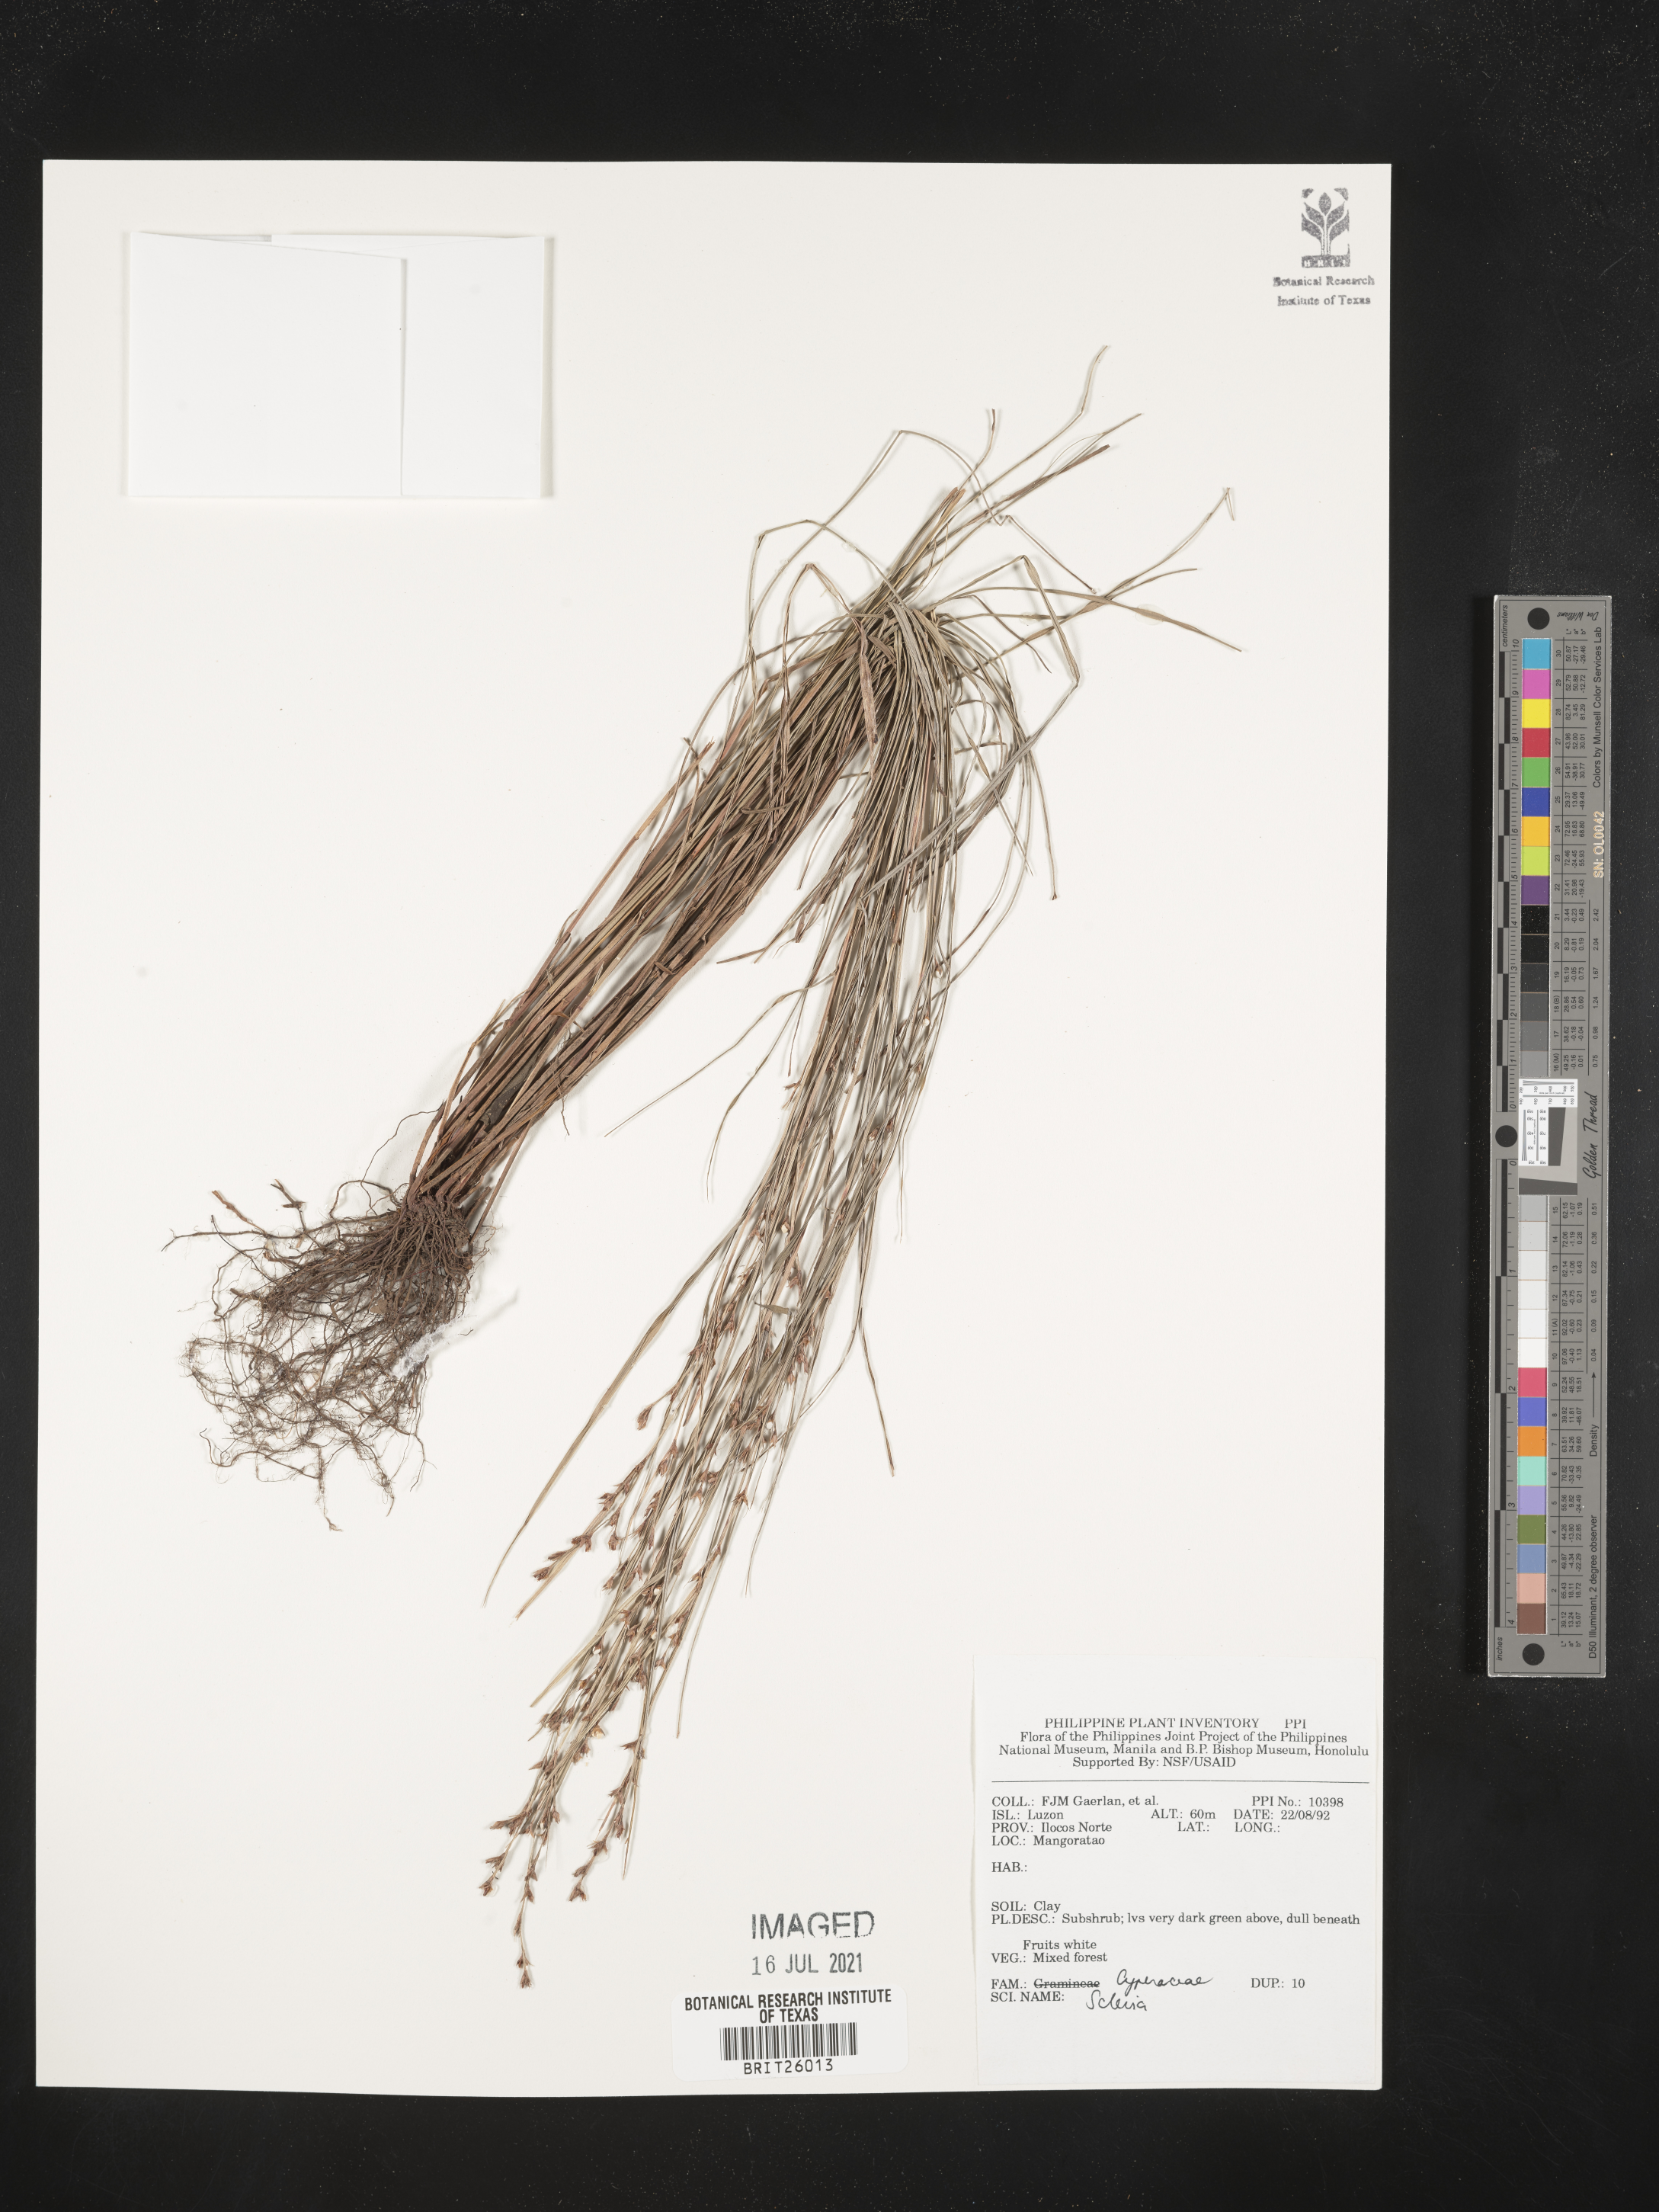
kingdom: Plantae
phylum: Tracheophyta
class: Liliopsida
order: Poales
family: Cyperaceae
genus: Scleria
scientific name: Scleria
